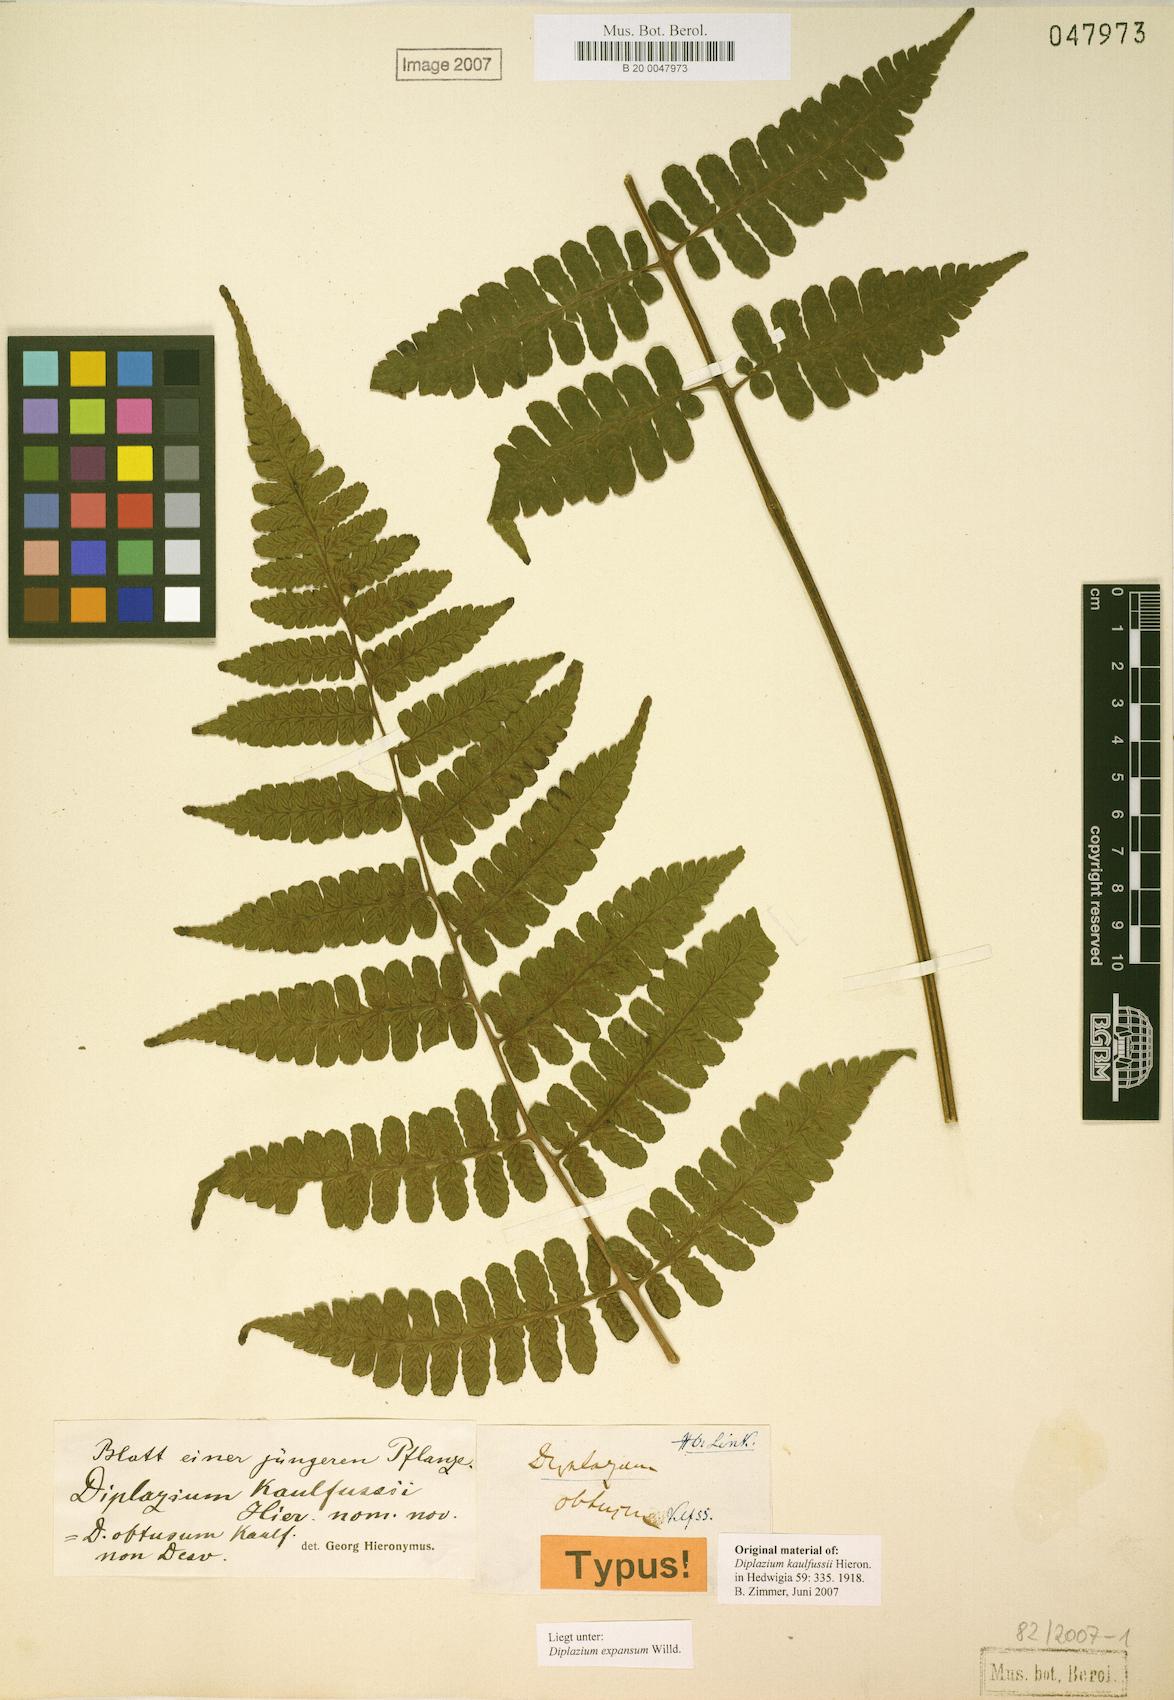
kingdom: Plantae
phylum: Tracheophyta
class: Polypodiopsida
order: Polypodiales
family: Athyriaceae
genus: Diplazium
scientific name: Diplazium expansum
